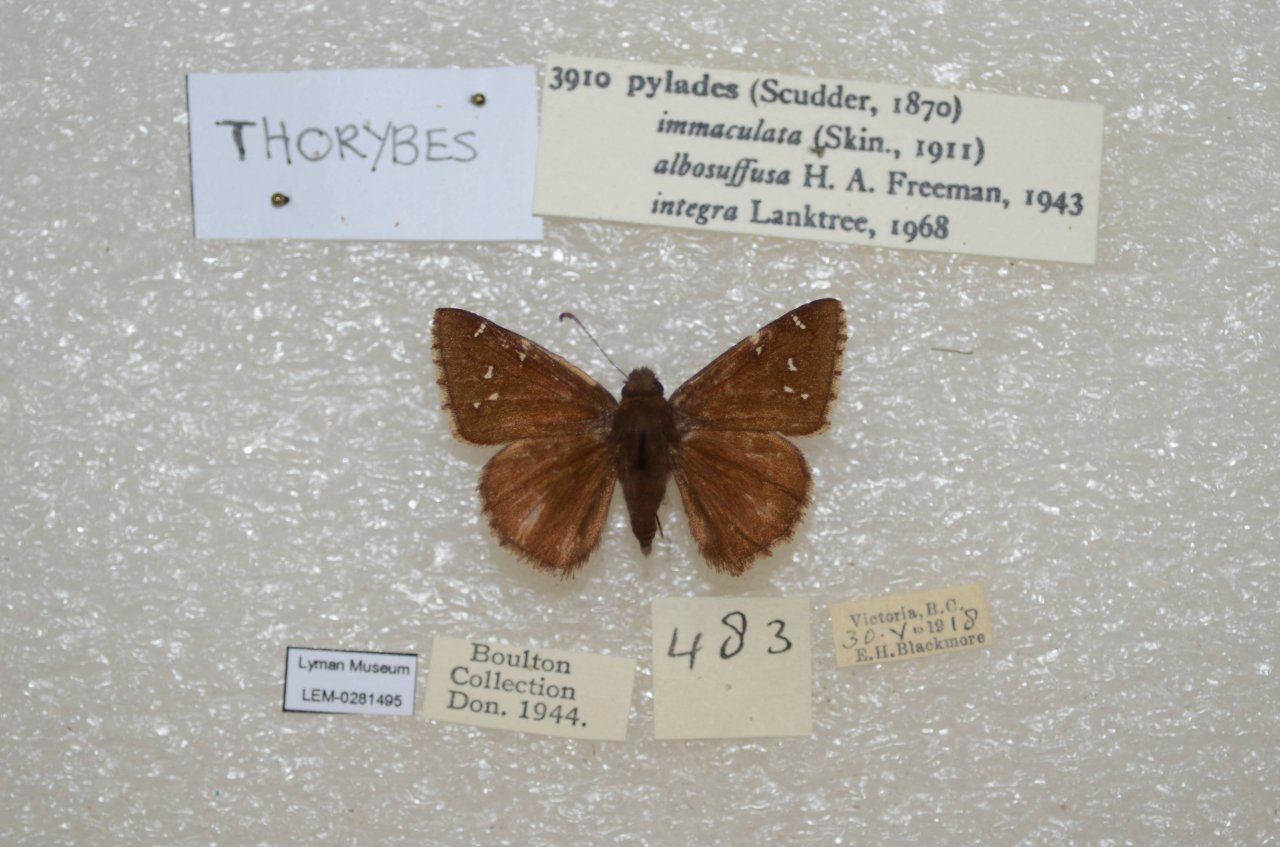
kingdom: Animalia
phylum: Arthropoda
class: Insecta
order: Lepidoptera
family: Hesperiidae
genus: Autochton
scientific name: Autochton
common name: Northern Cloudywing
